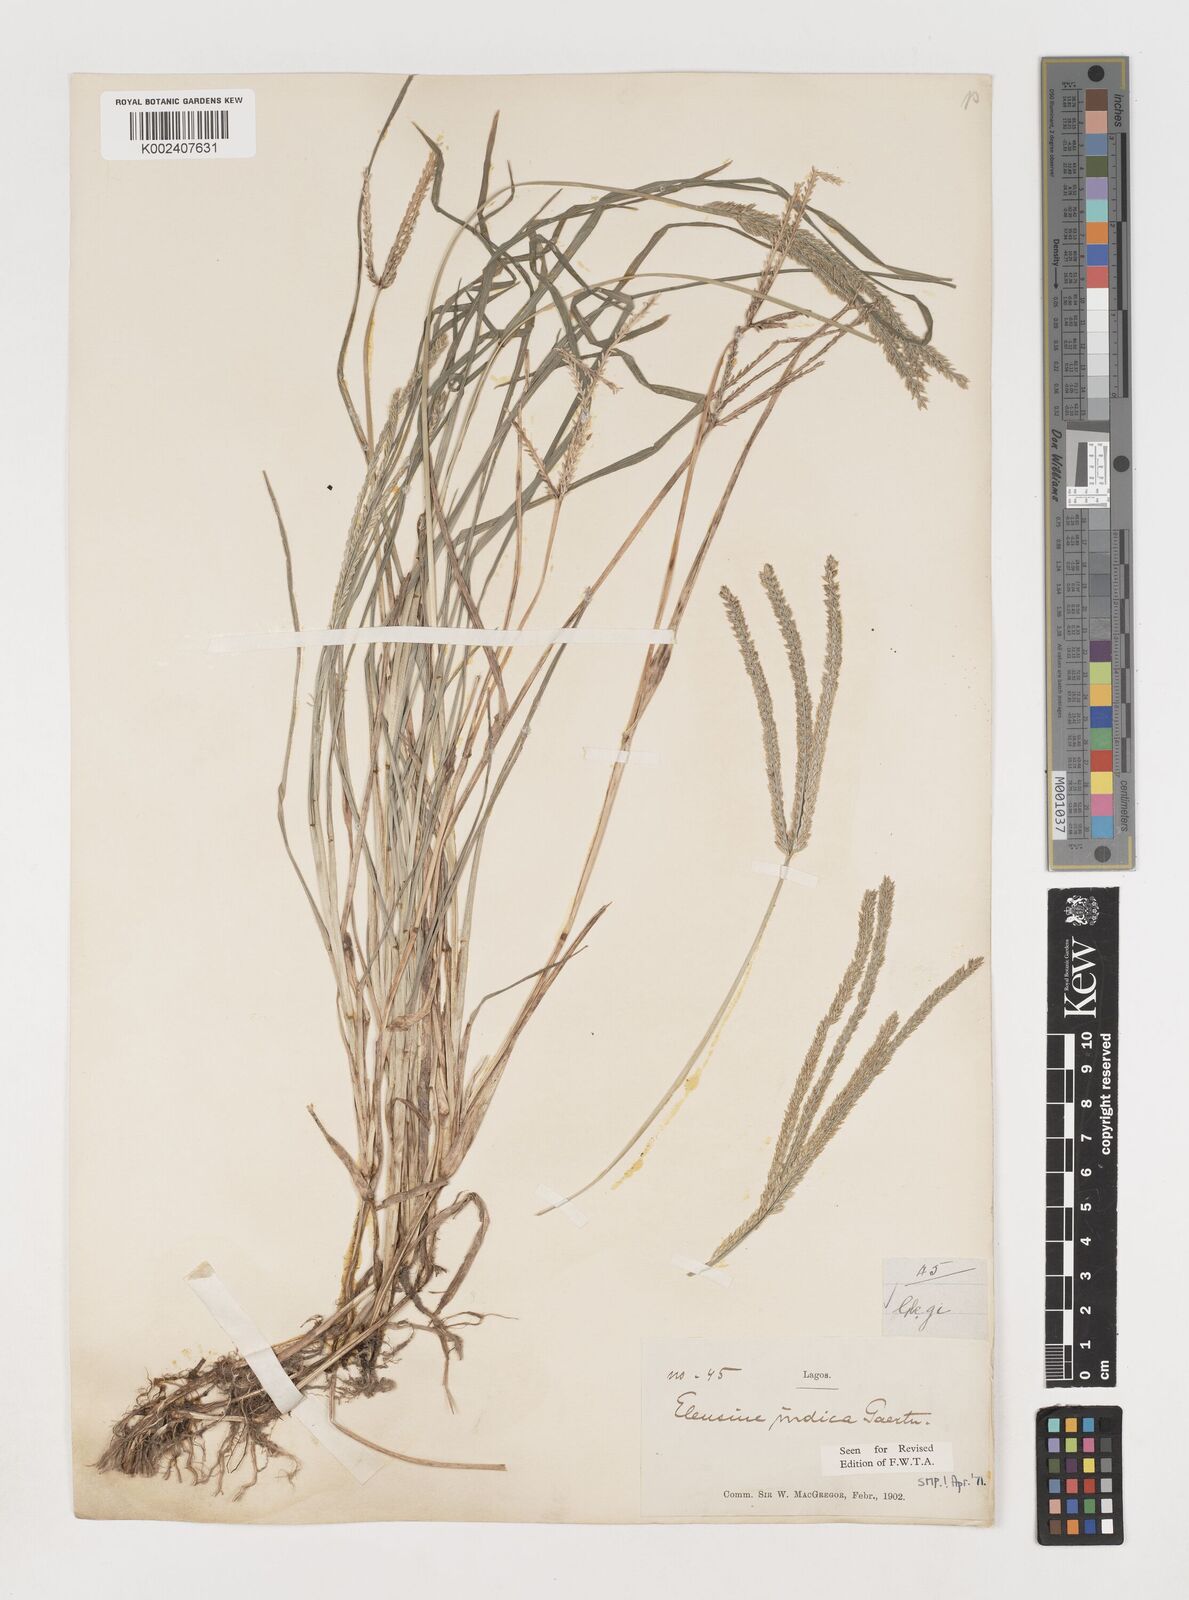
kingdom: Plantae
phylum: Tracheophyta
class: Liliopsida
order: Poales
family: Poaceae
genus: Eleusine
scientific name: Eleusine indica
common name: Yard-grass
